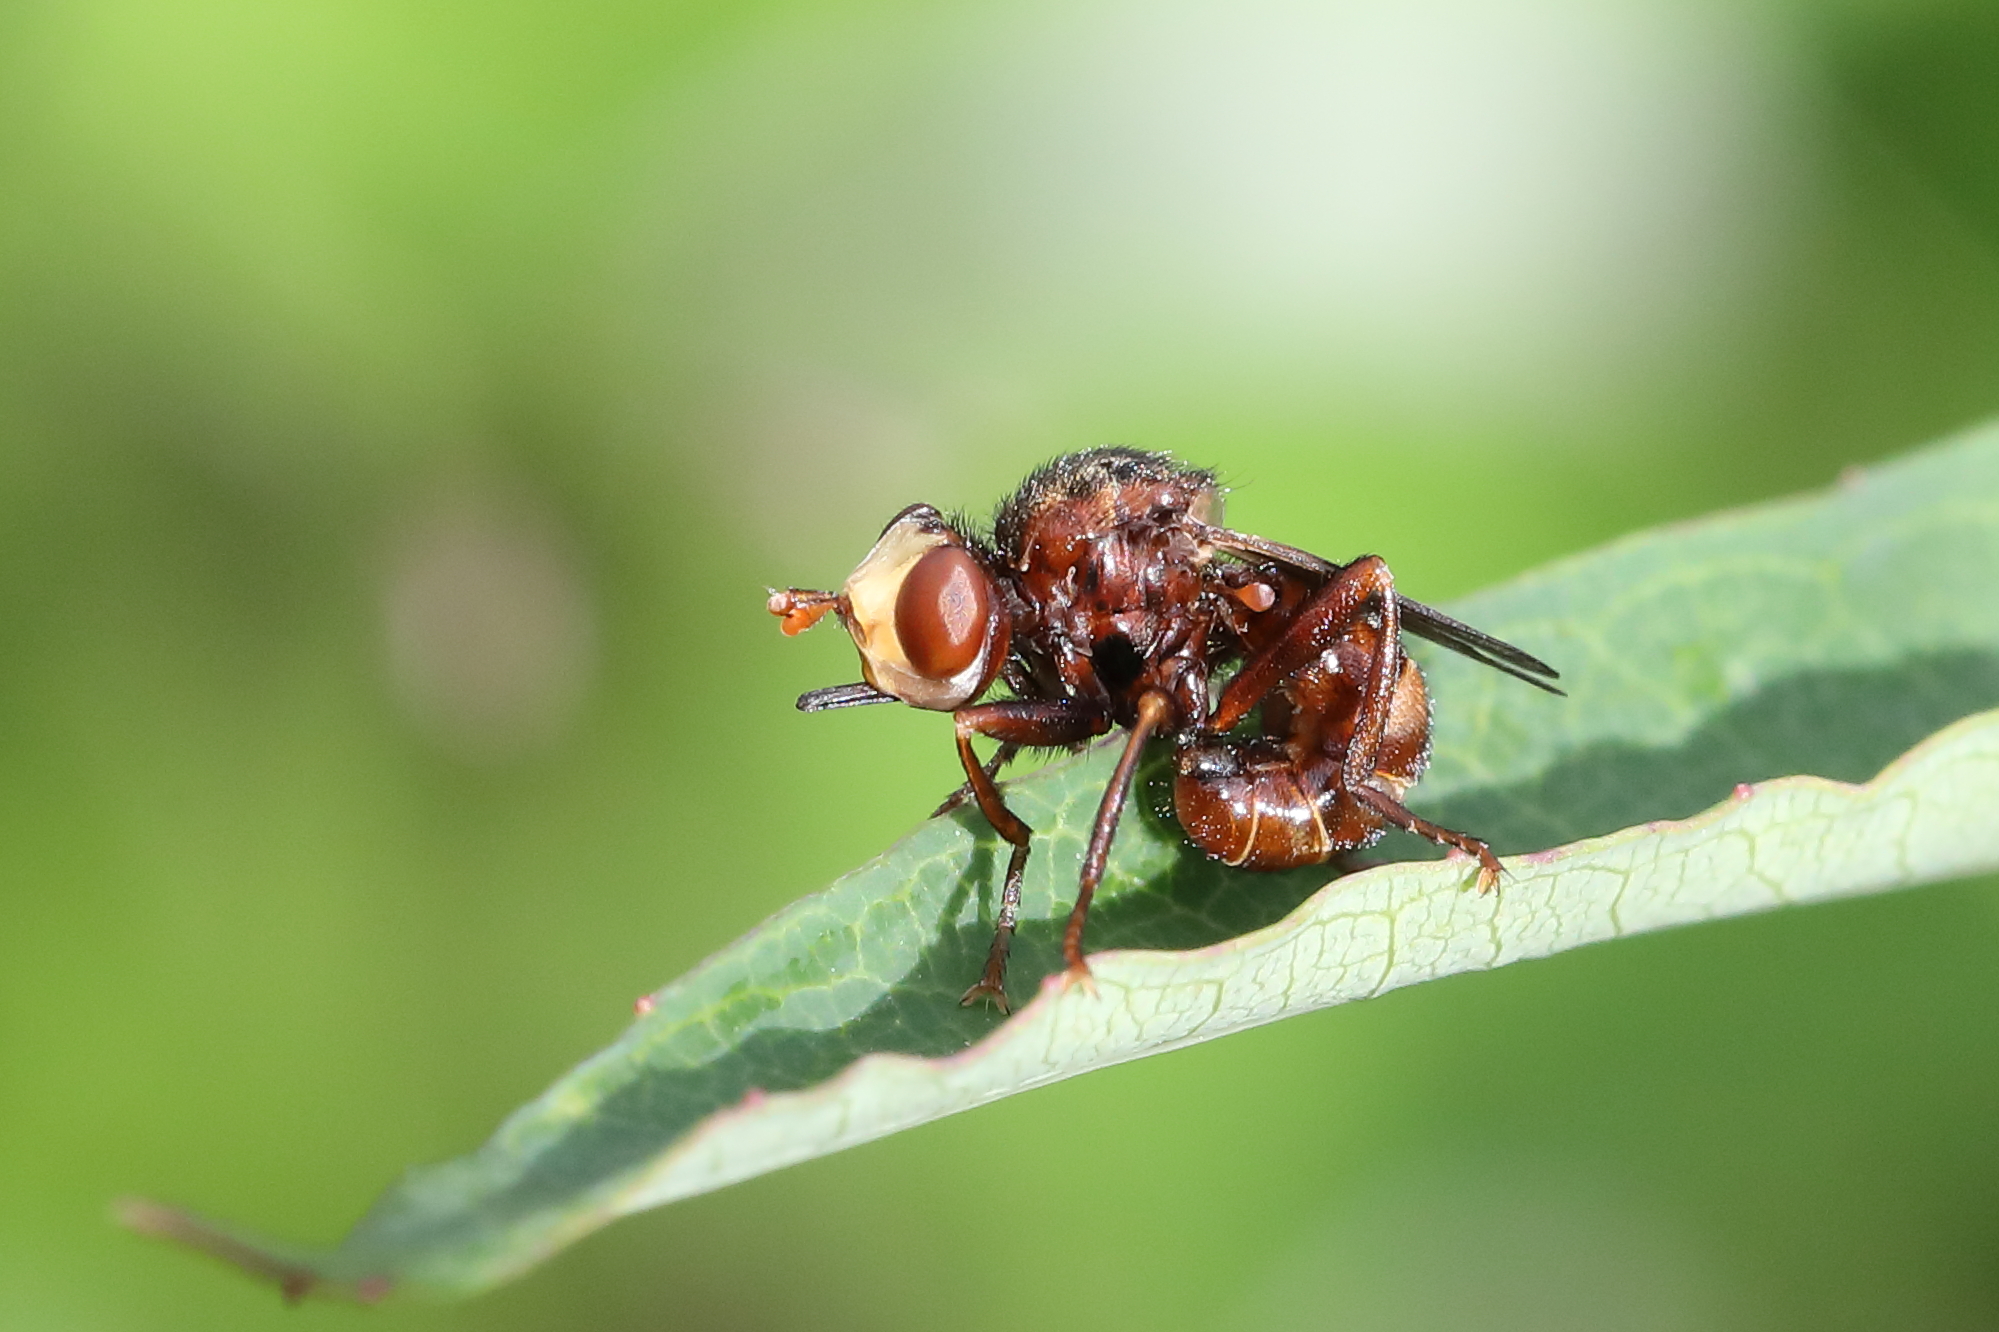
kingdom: Animalia
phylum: Arthropoda
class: Insecta
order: Diptera
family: Conopidae
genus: Sicus
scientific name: Sicus ferrugineus
